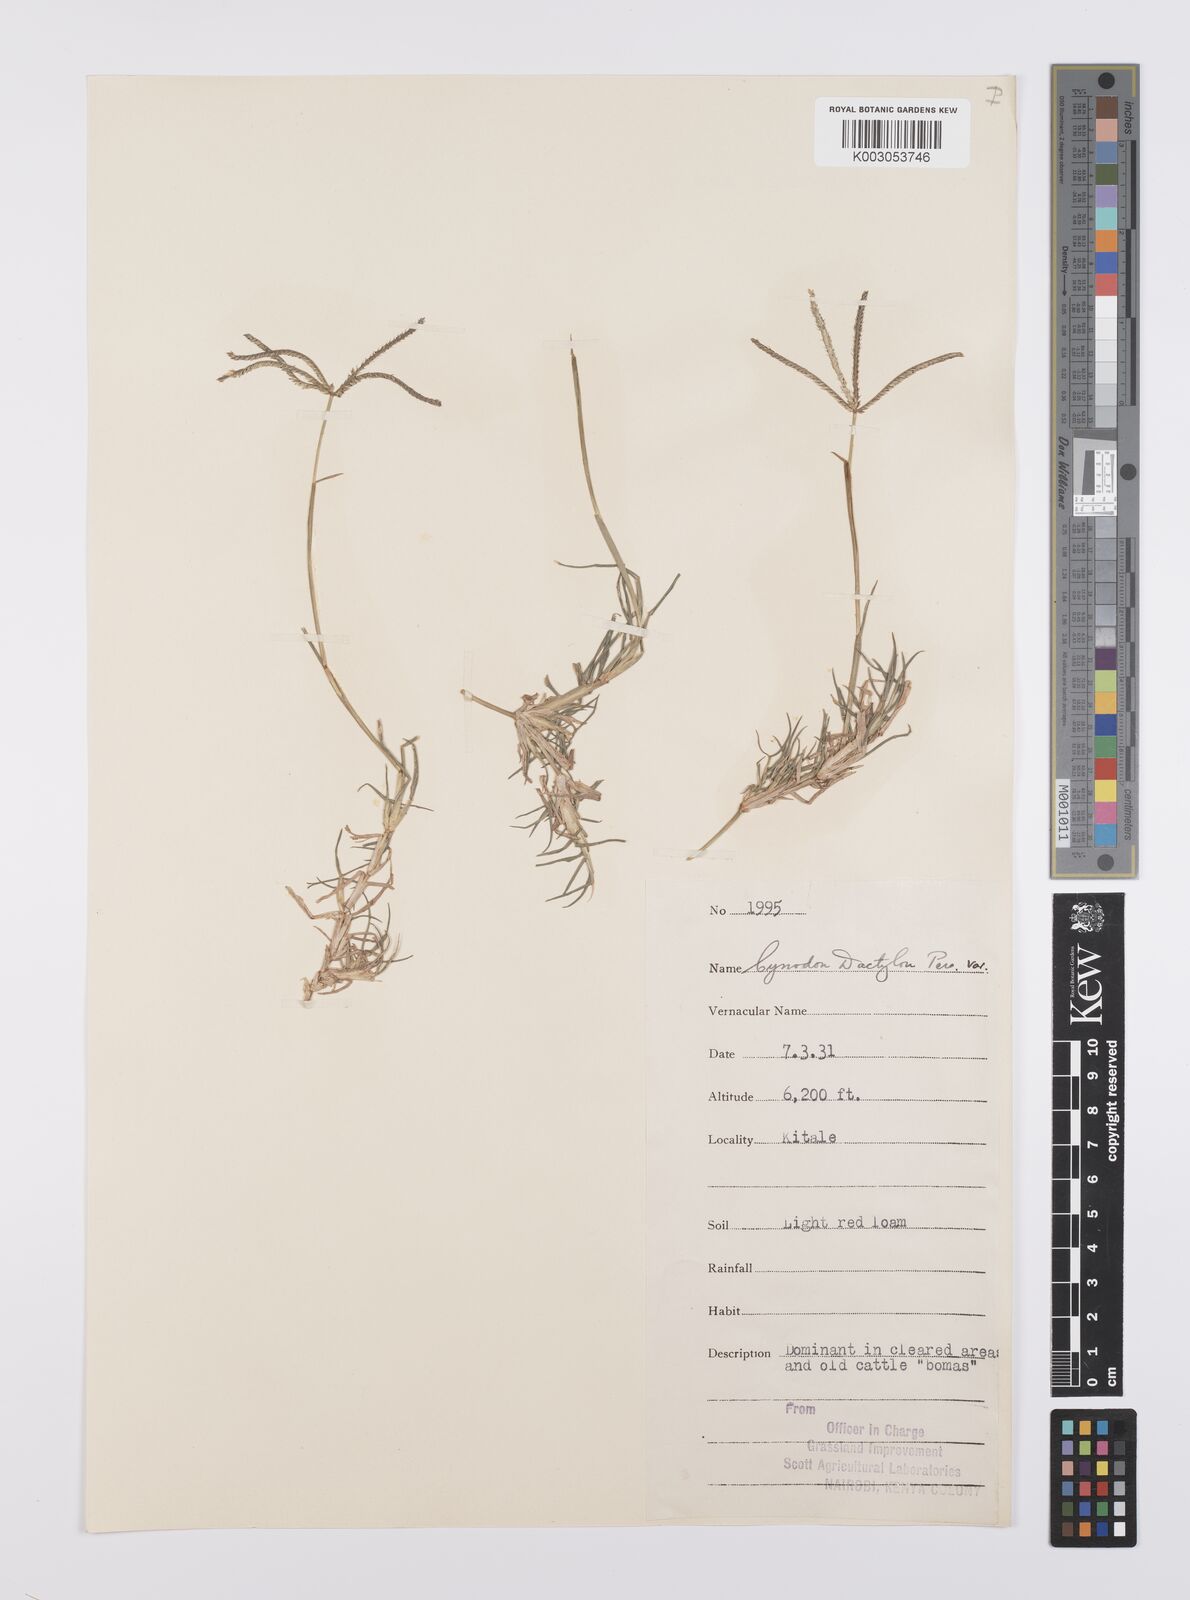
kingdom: Plantae
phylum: Tracheophyta
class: Liliopsida
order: Poales
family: Poaceae
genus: Cynodon
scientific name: Cynodon dactylon
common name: Bermuda grass
